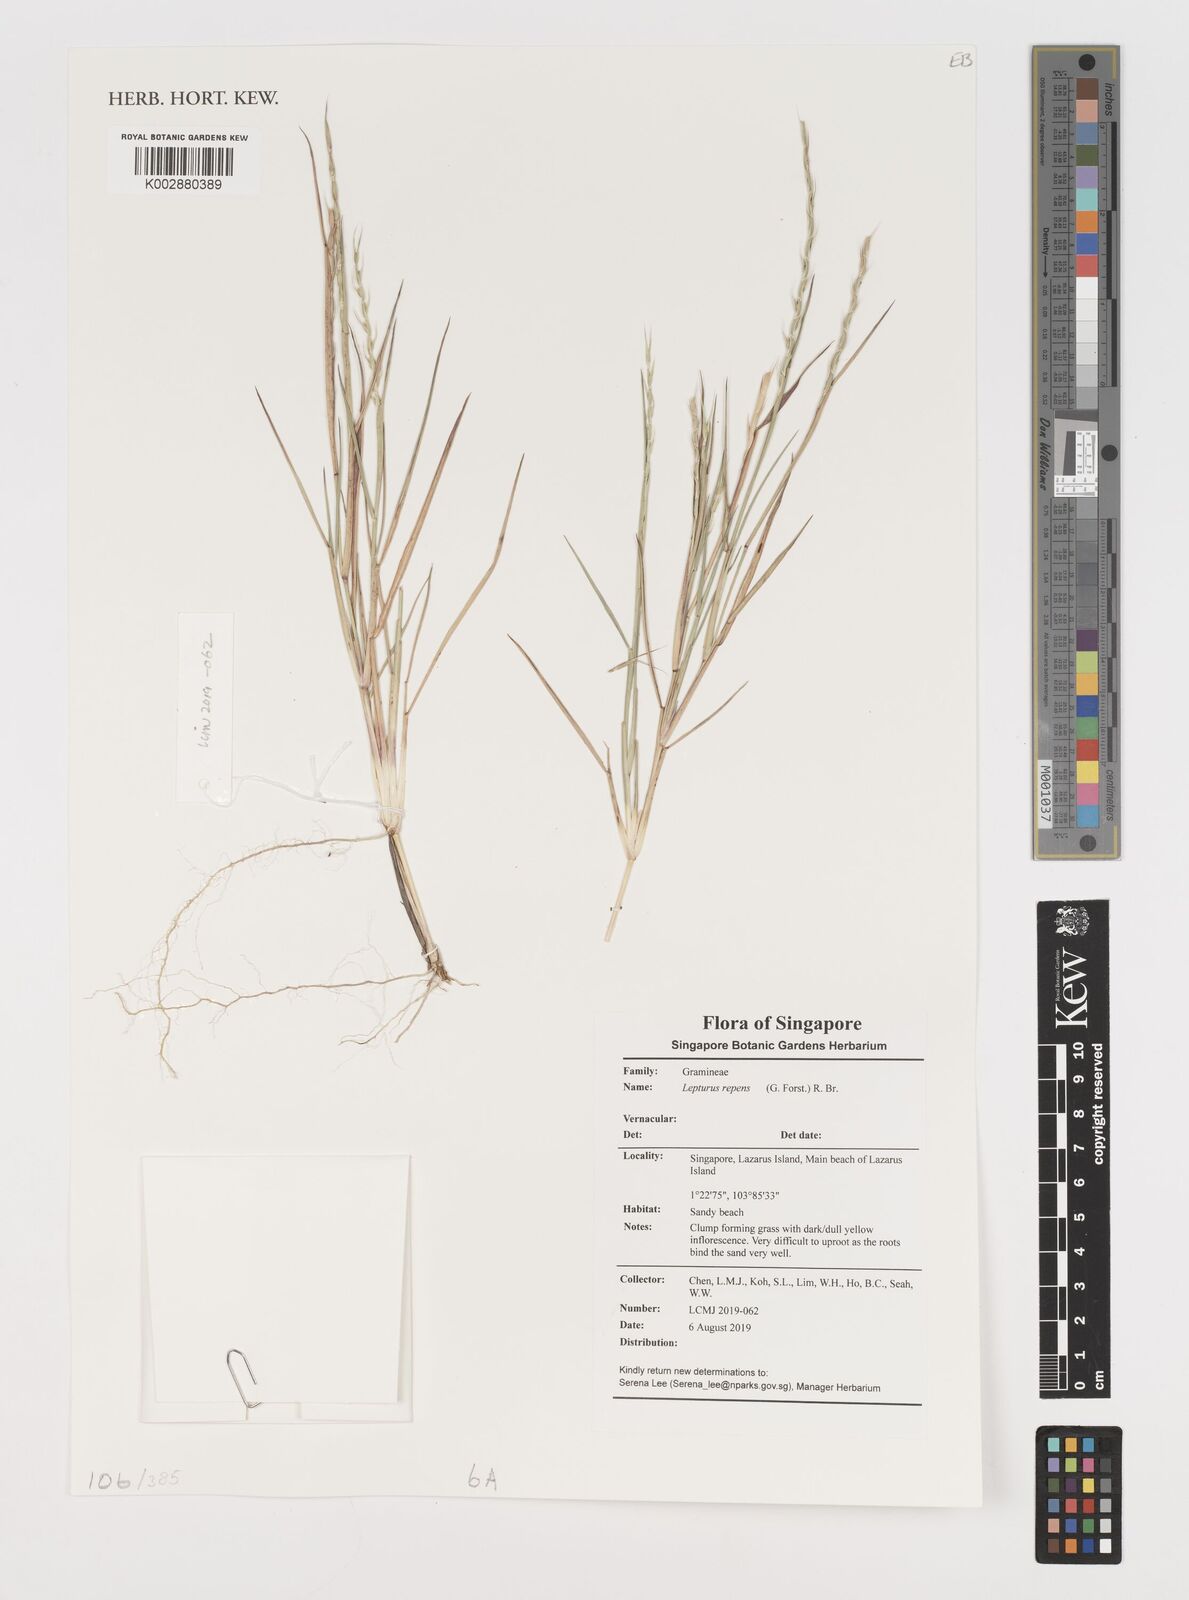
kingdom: Plantae
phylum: Tracheophyta
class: Liliopsida
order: Poales
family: Poaceae
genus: Lepturus
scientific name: Lepturus repens
